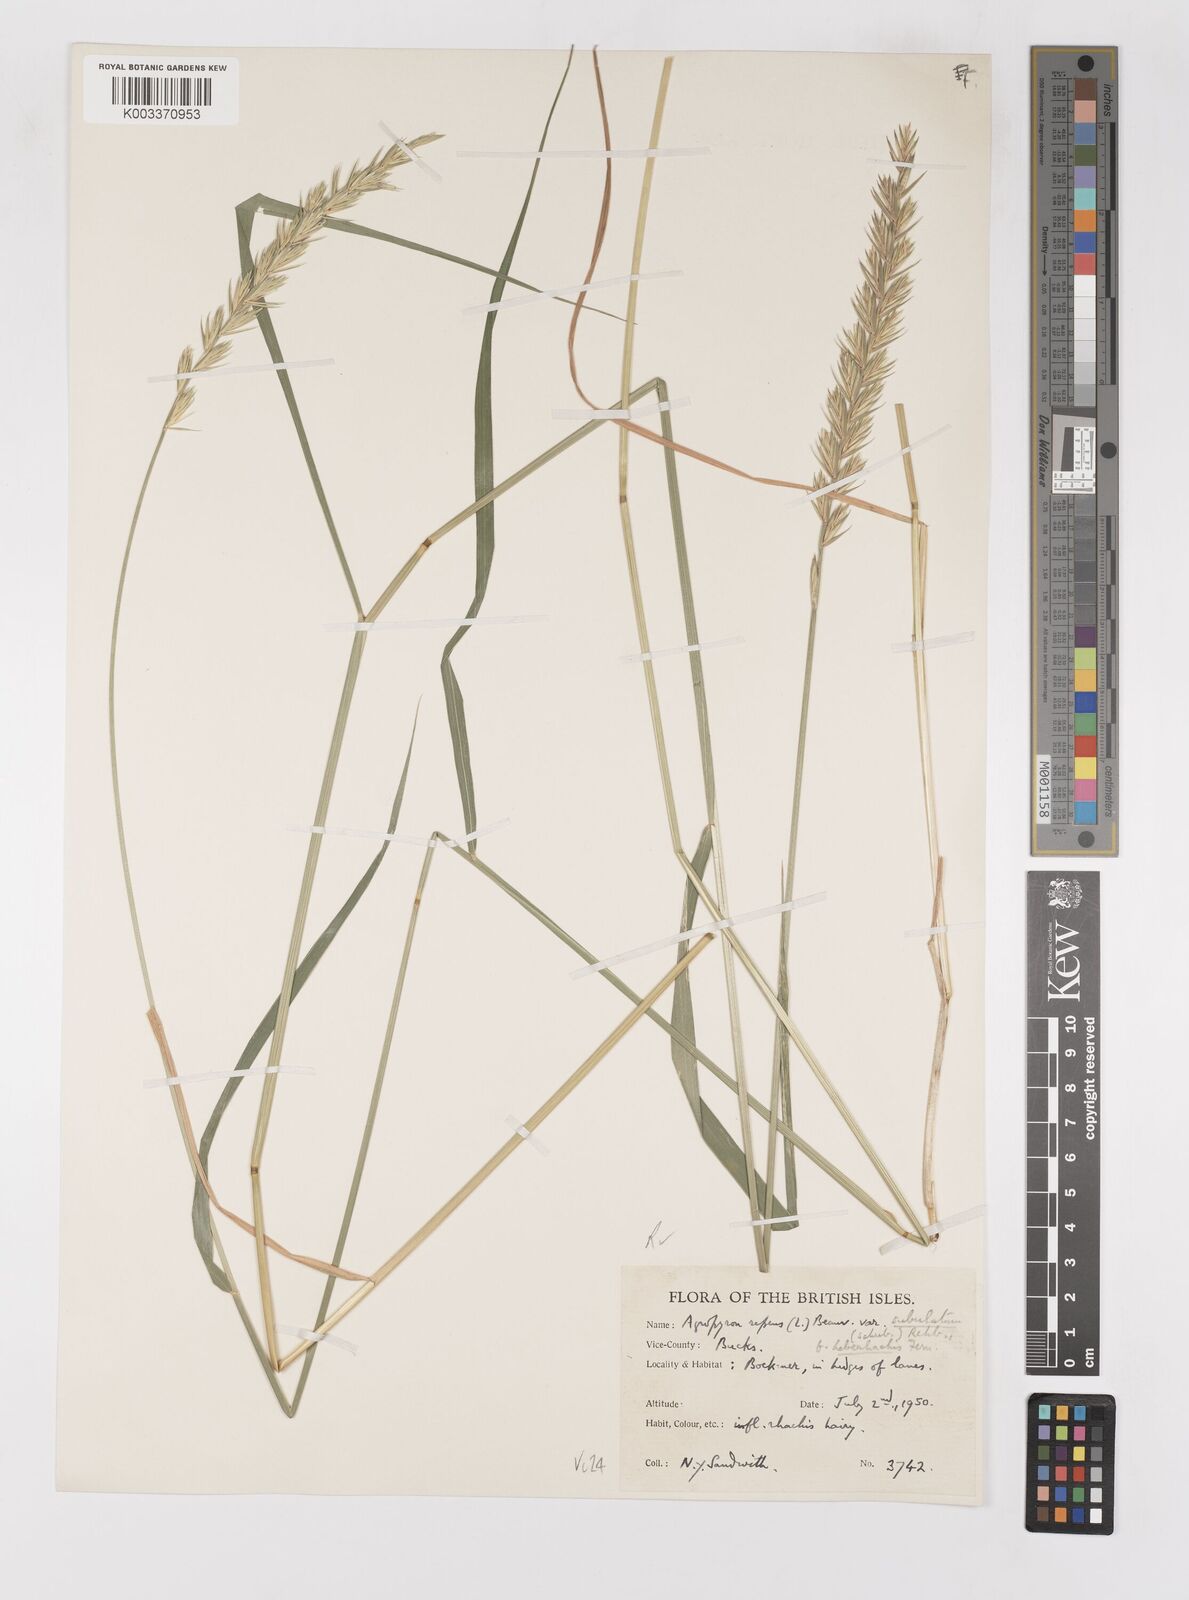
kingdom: Plantae
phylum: Tracheophyta
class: Liliopsida
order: Poales
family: Poaceae
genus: Elymus
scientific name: Elymus repens
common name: Quackgrass
